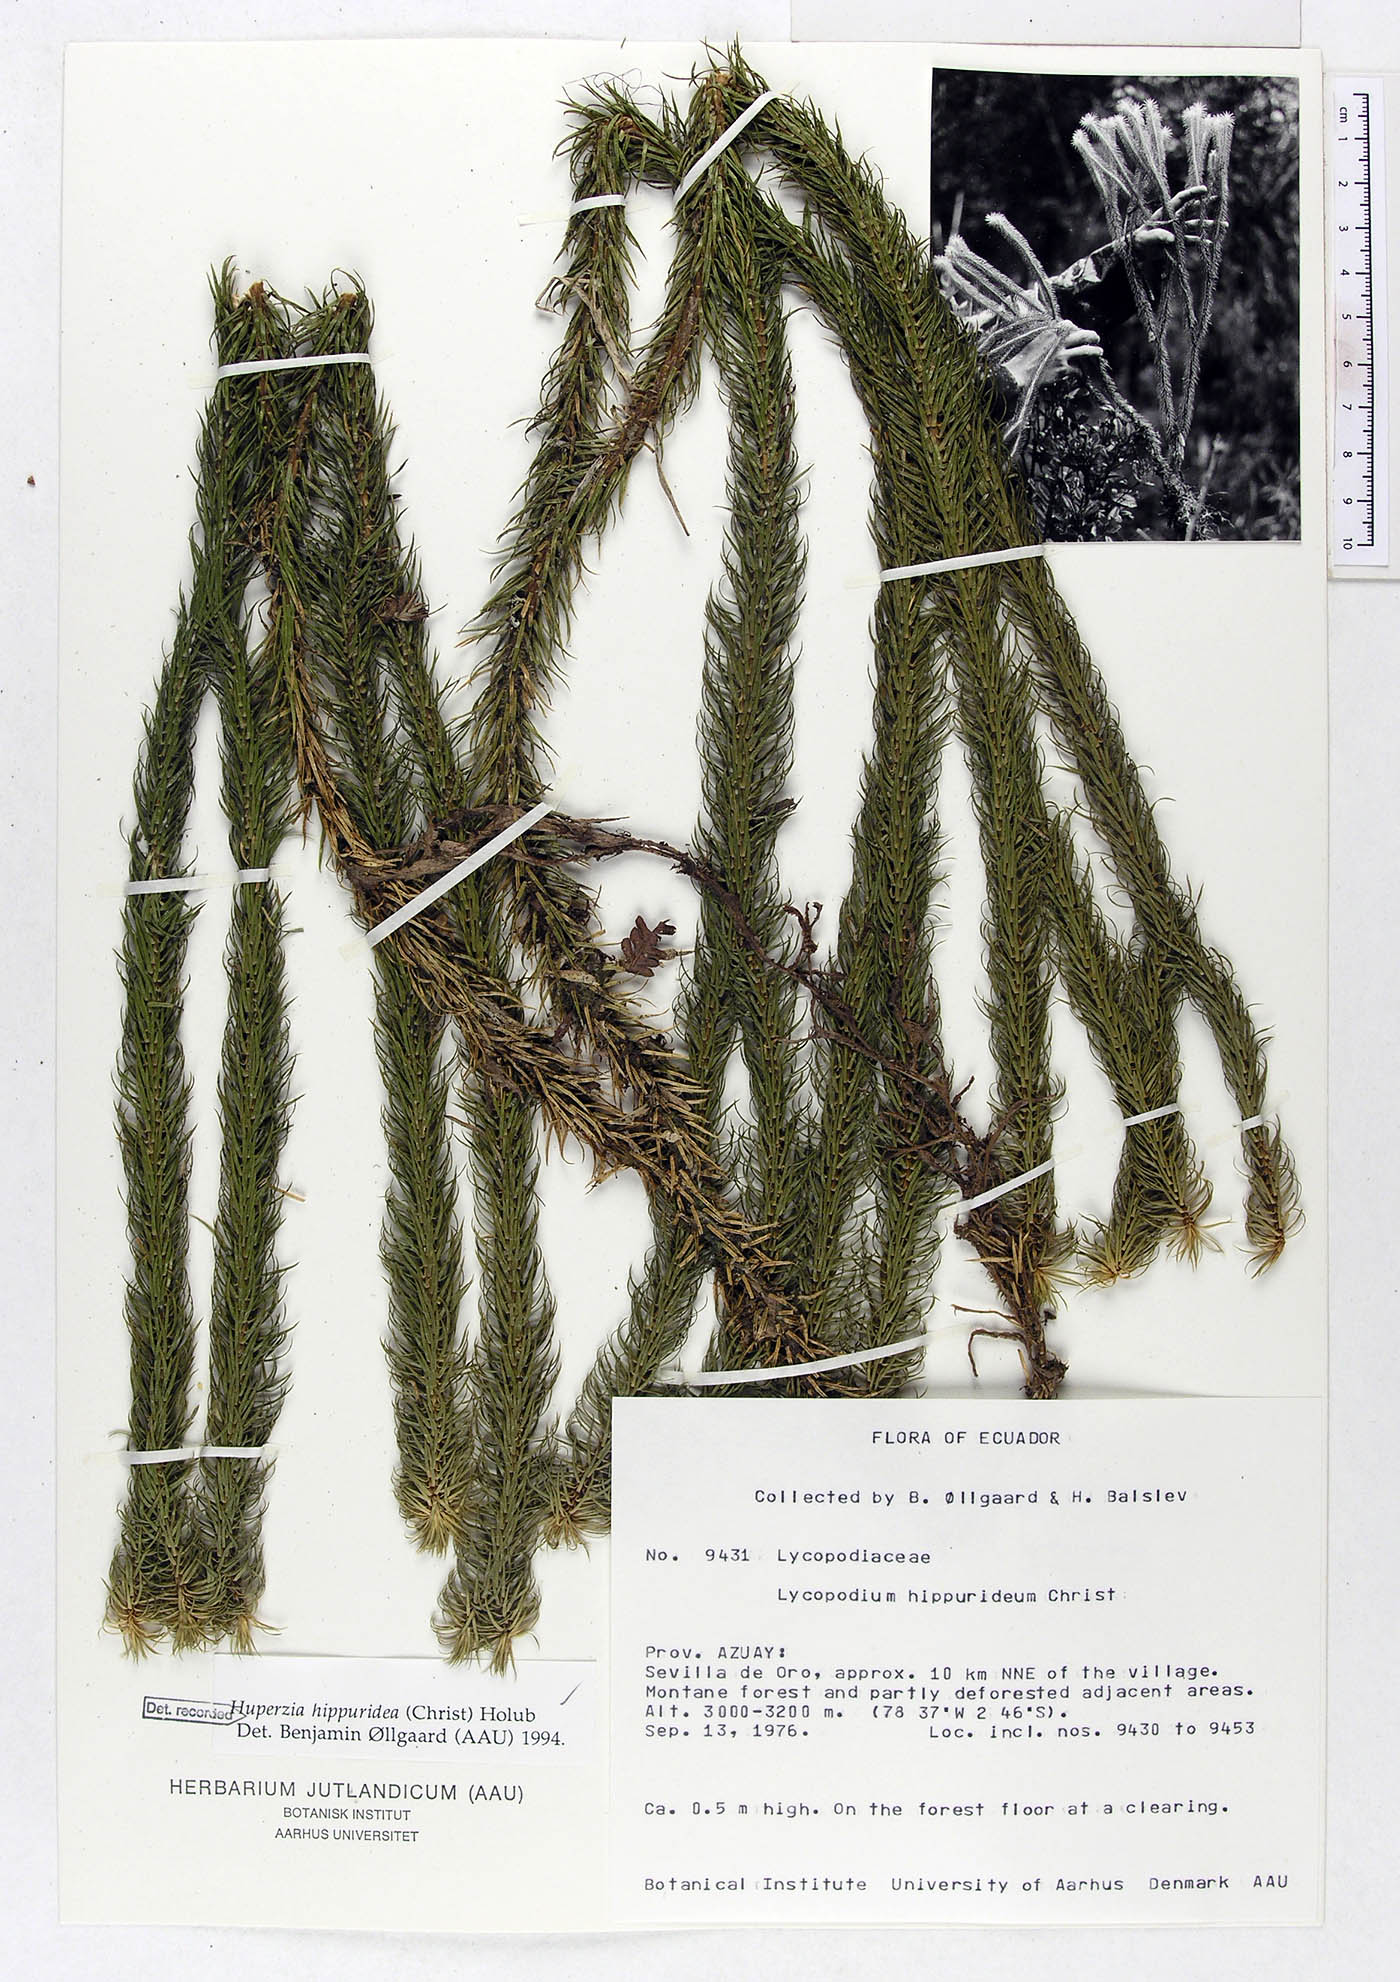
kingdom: Plantae
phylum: Tracheophyta
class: Lycopodiopsida
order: Lycopodiales
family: Lycopodiaceae
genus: Phlegmariurus
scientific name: Phlegmariurus hippurideus
